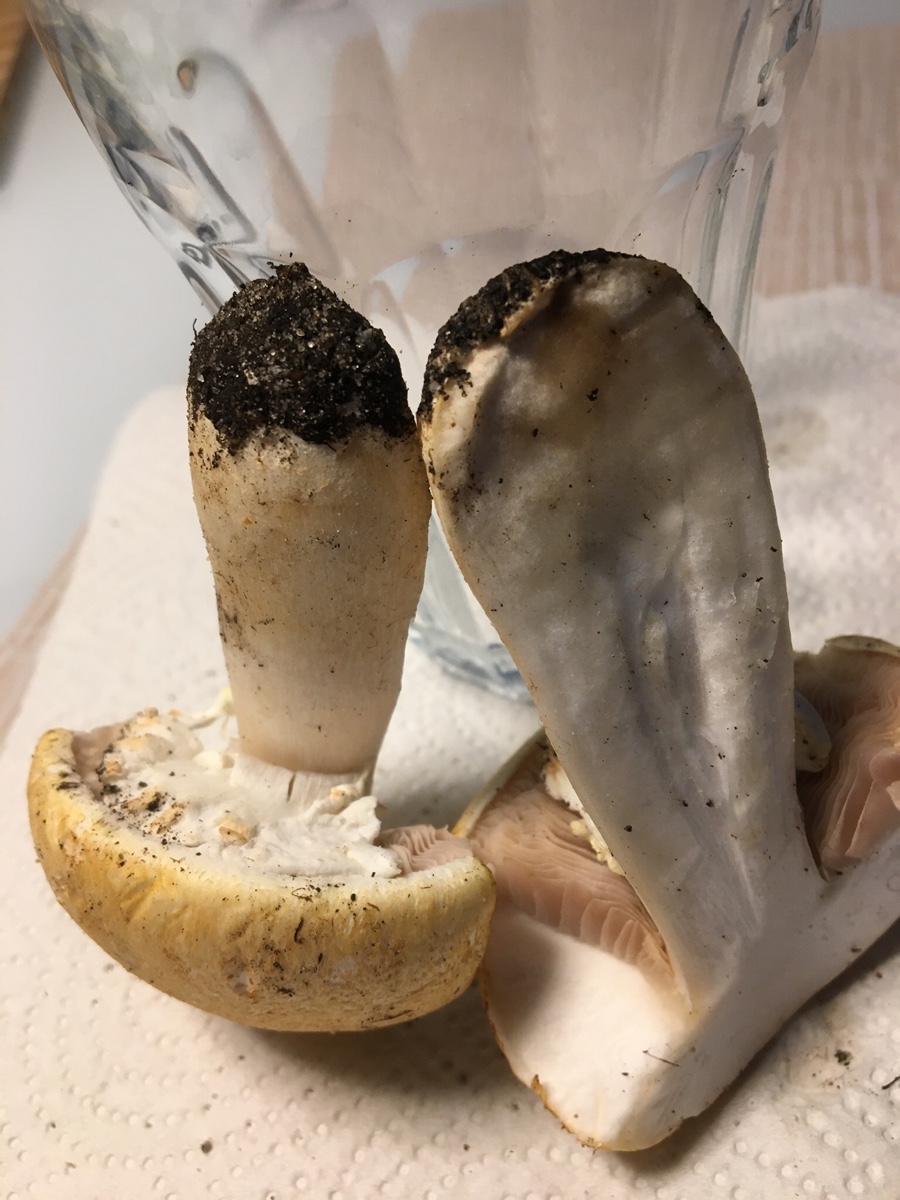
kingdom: Fungi
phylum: Basidiomycota
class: Agaricomycetes
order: Agaricales
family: Agaricaceae
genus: Agaricus
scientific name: Agaricus arvensis
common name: ager-champignon
